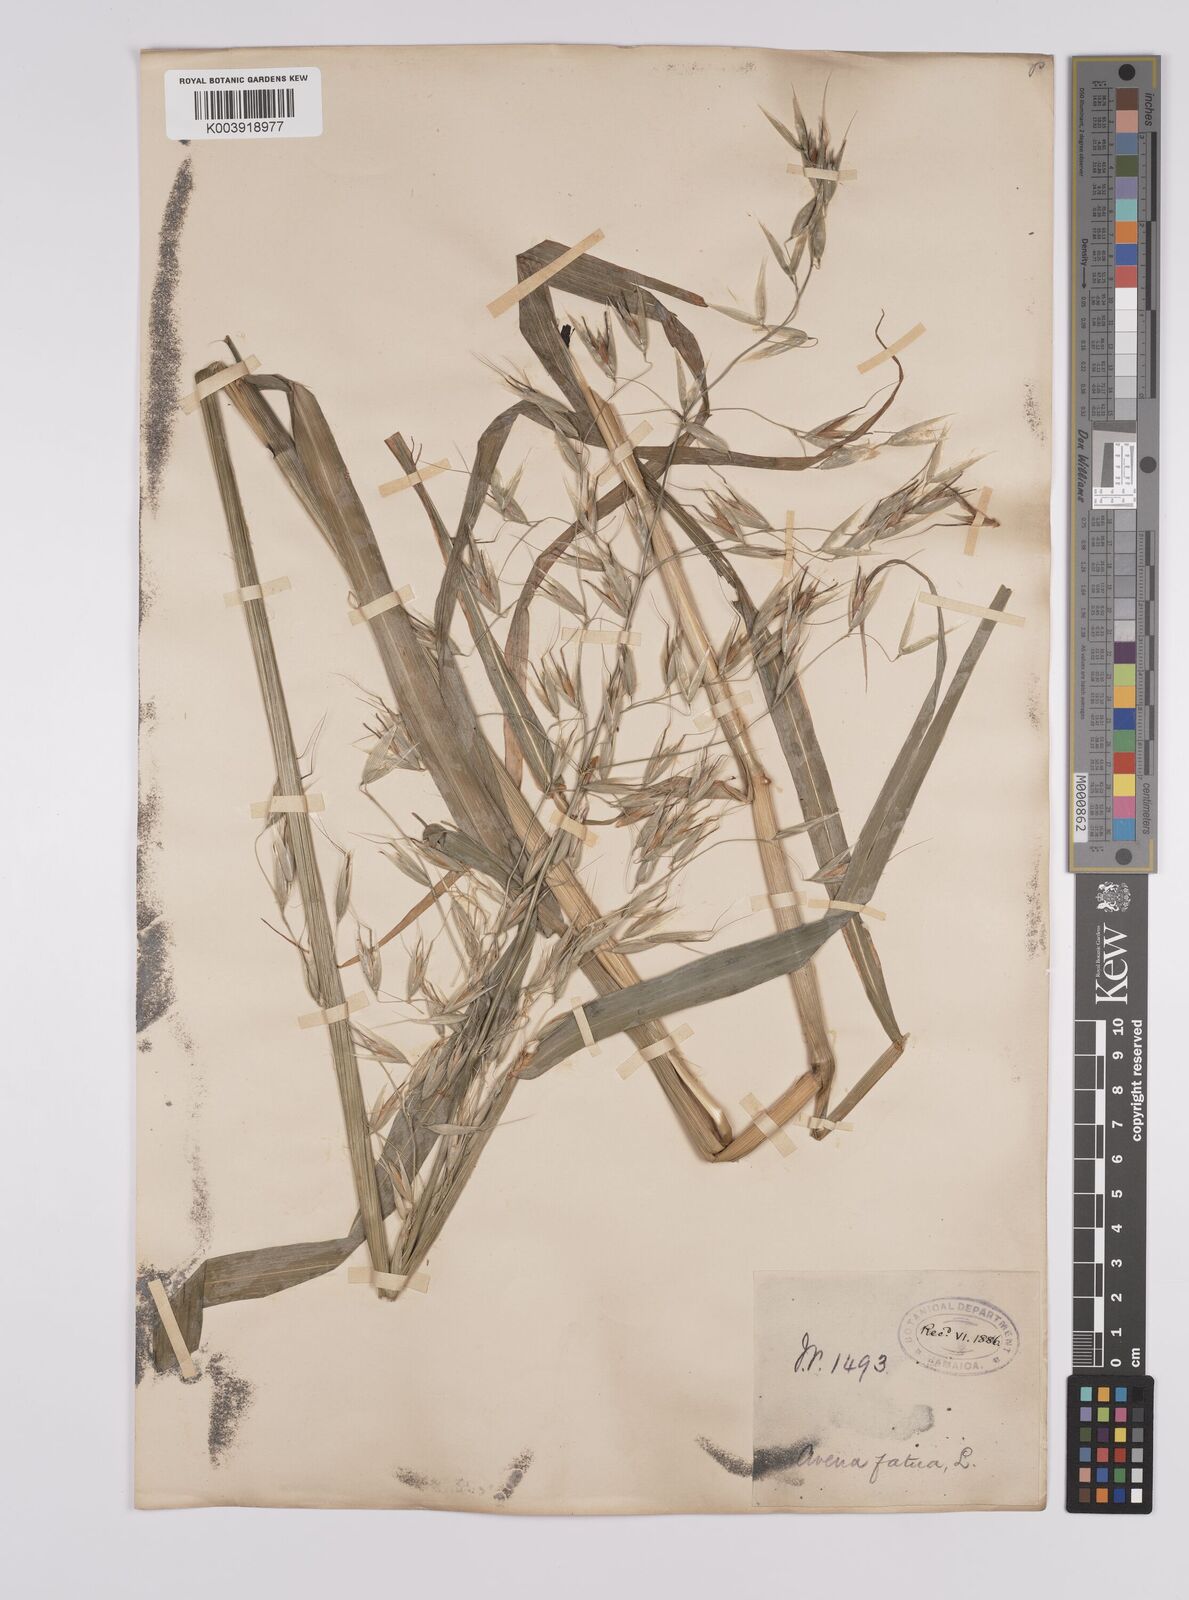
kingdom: Plantae
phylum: Tracheophyta
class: Liliopsida
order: Poales
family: Poaceae
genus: Avena
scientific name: Avena fatua
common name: Wild oat
